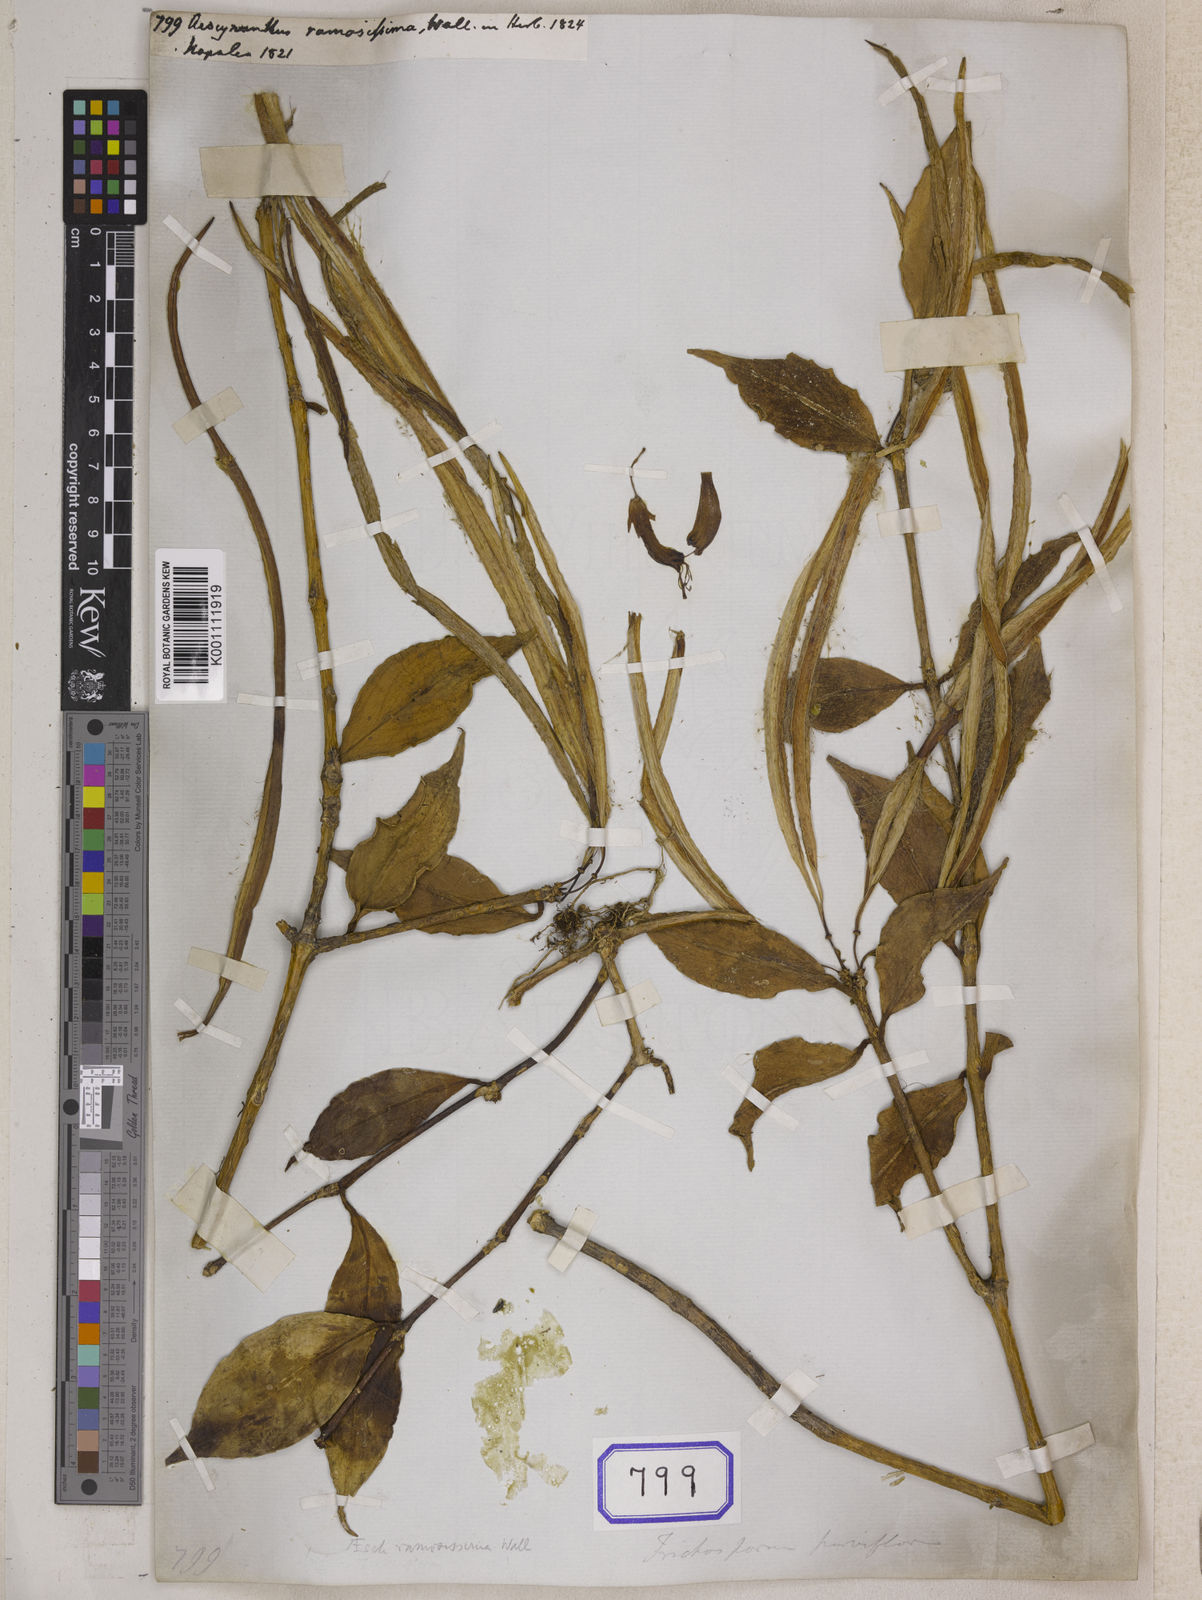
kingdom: Plantae
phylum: Tracheophyta
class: Magnoliopsida
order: Lamiales
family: Gesneriaceae
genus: Aeschynanthus
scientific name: Aeschynanthus parviflorus
